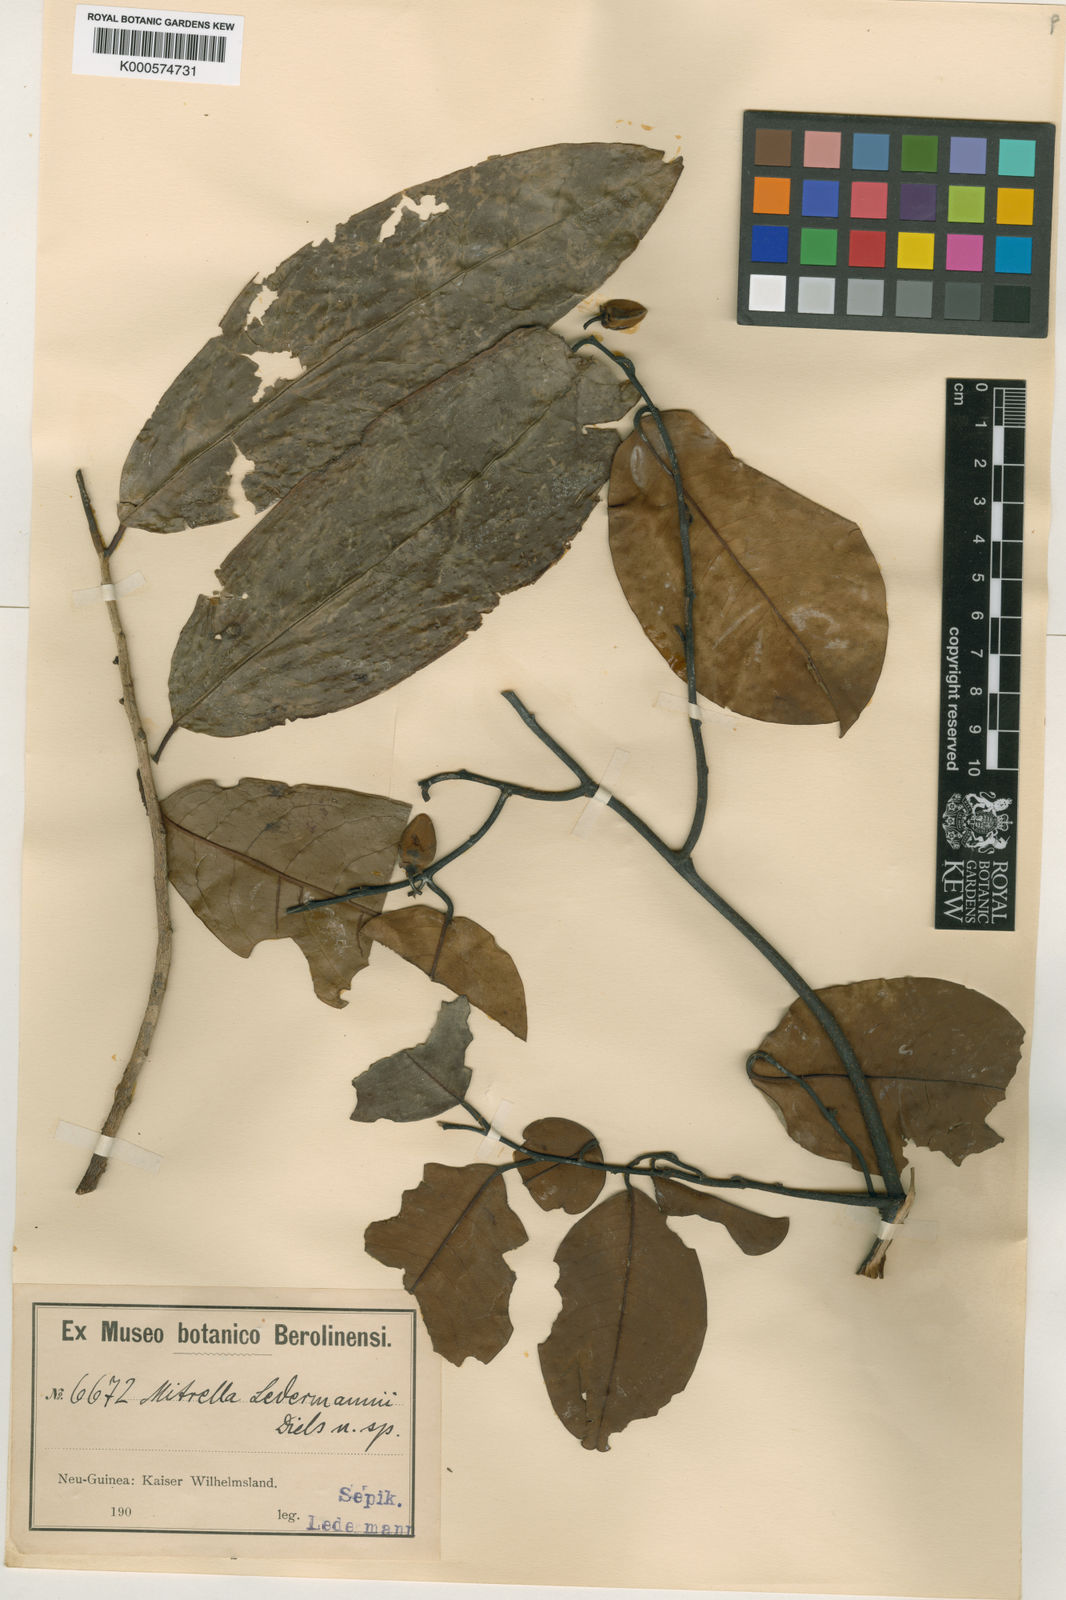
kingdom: Plantae
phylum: Tracheophyta
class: Magnoliopsida
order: Magnoliales
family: Annonaceae
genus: Mitrella
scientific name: Mitrella ledermannii
